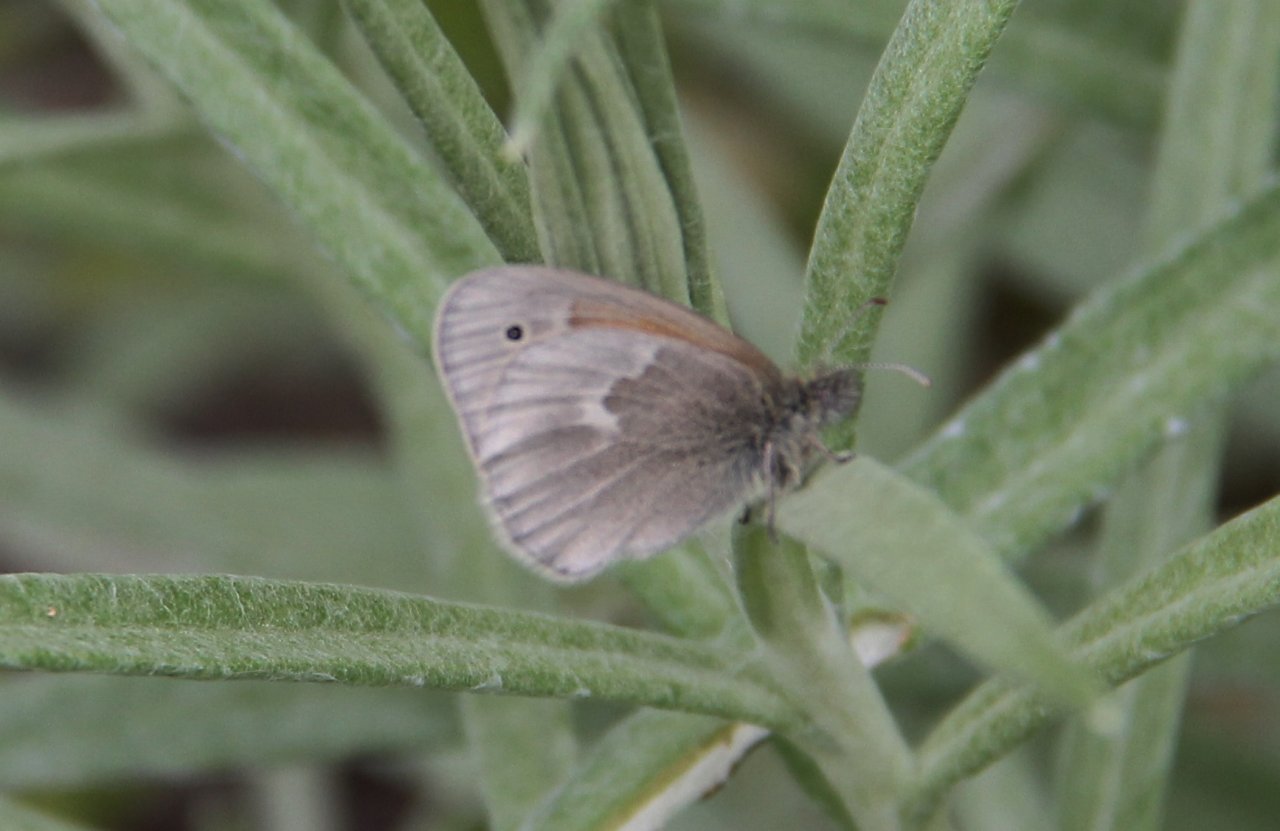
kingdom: Animalia
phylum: Arthropoda
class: Insecta
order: Lepidoptera
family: Nymphalidae
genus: Coenonympha
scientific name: Coenonympha tullia
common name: Large Heath
